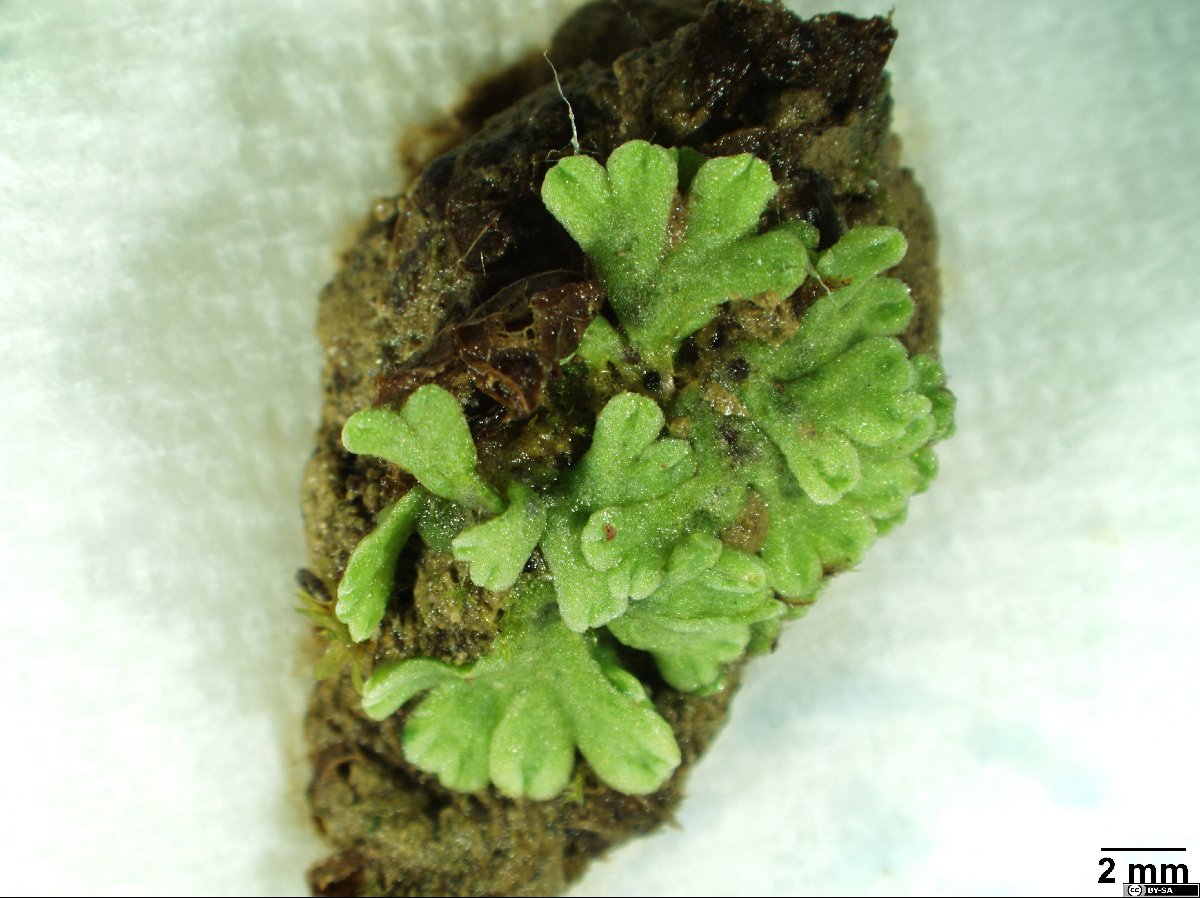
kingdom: Plantae
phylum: Marchantiophyta
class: Marchantiopsida
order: Marchantiales
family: Ricciaceae
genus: Riccia
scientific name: Riccia glauca
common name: Glaucous crystalwort
